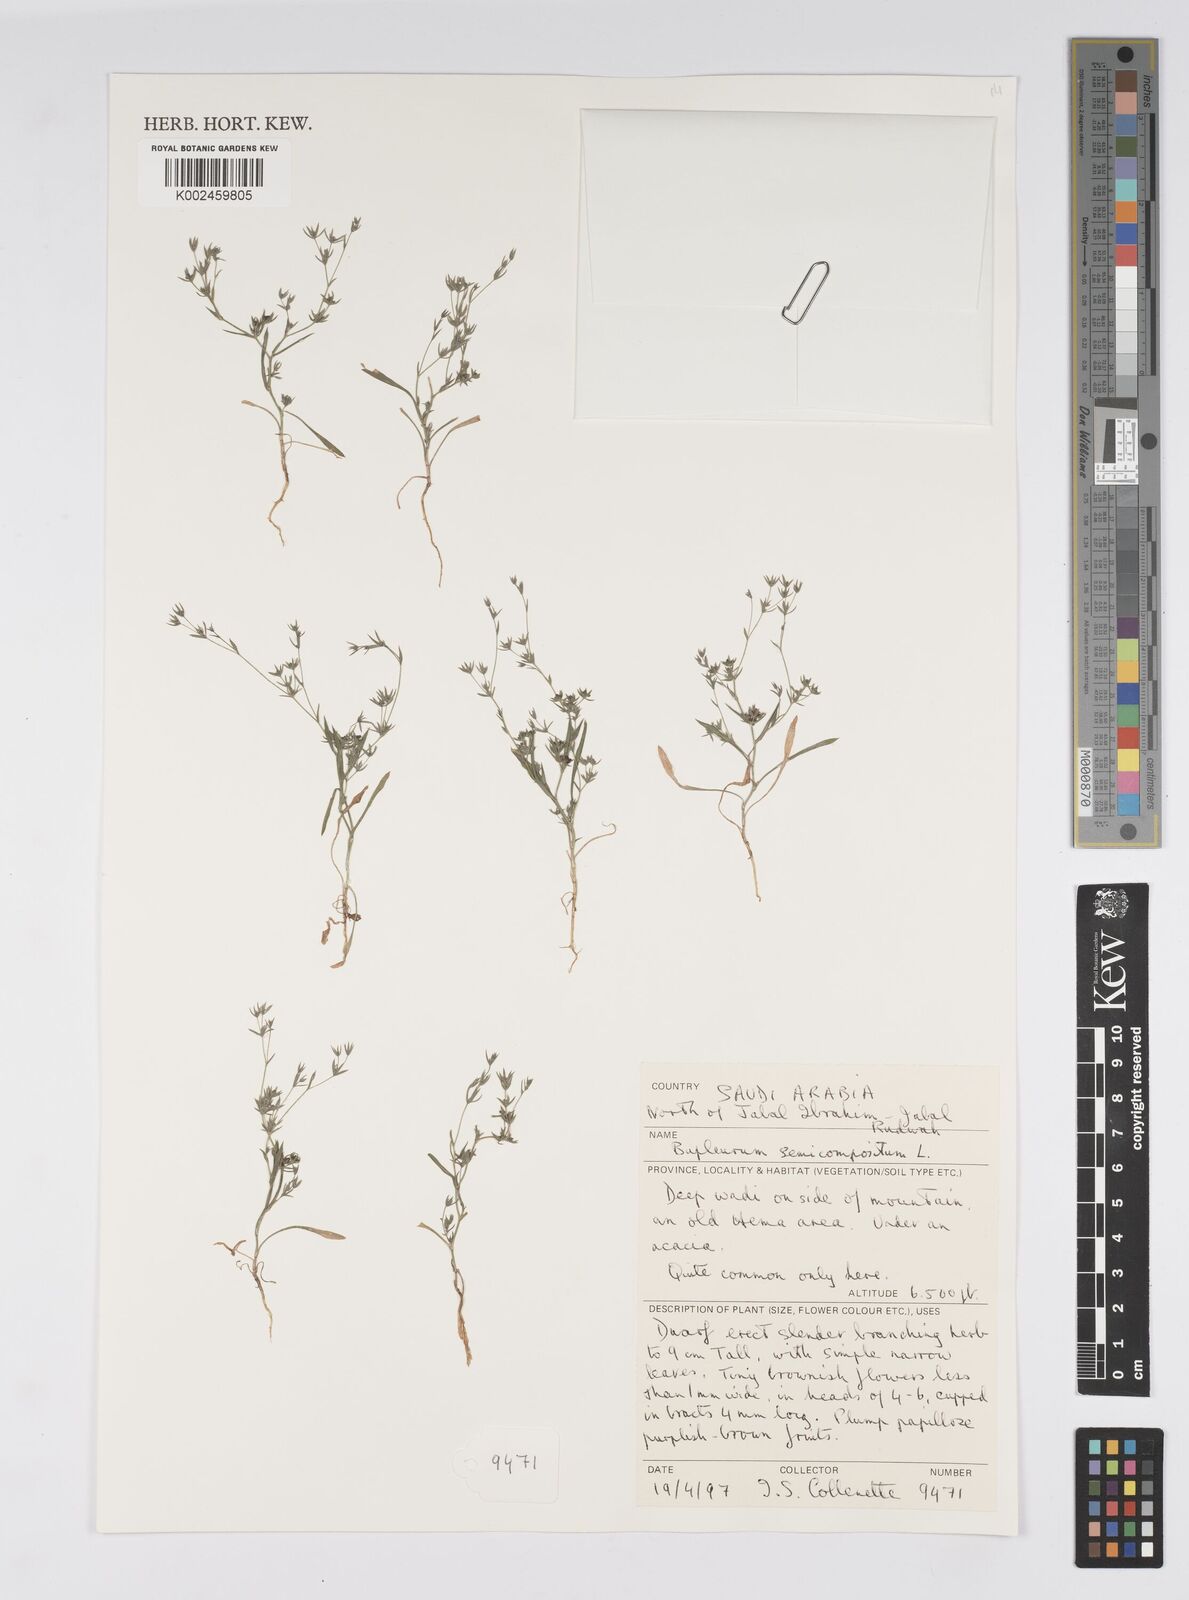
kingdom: Plantae
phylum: Tracheophyta
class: Magnoliopsida
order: Apiales
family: Apiaceae
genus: Bupleurum
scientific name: Bupleurum semicompositum
